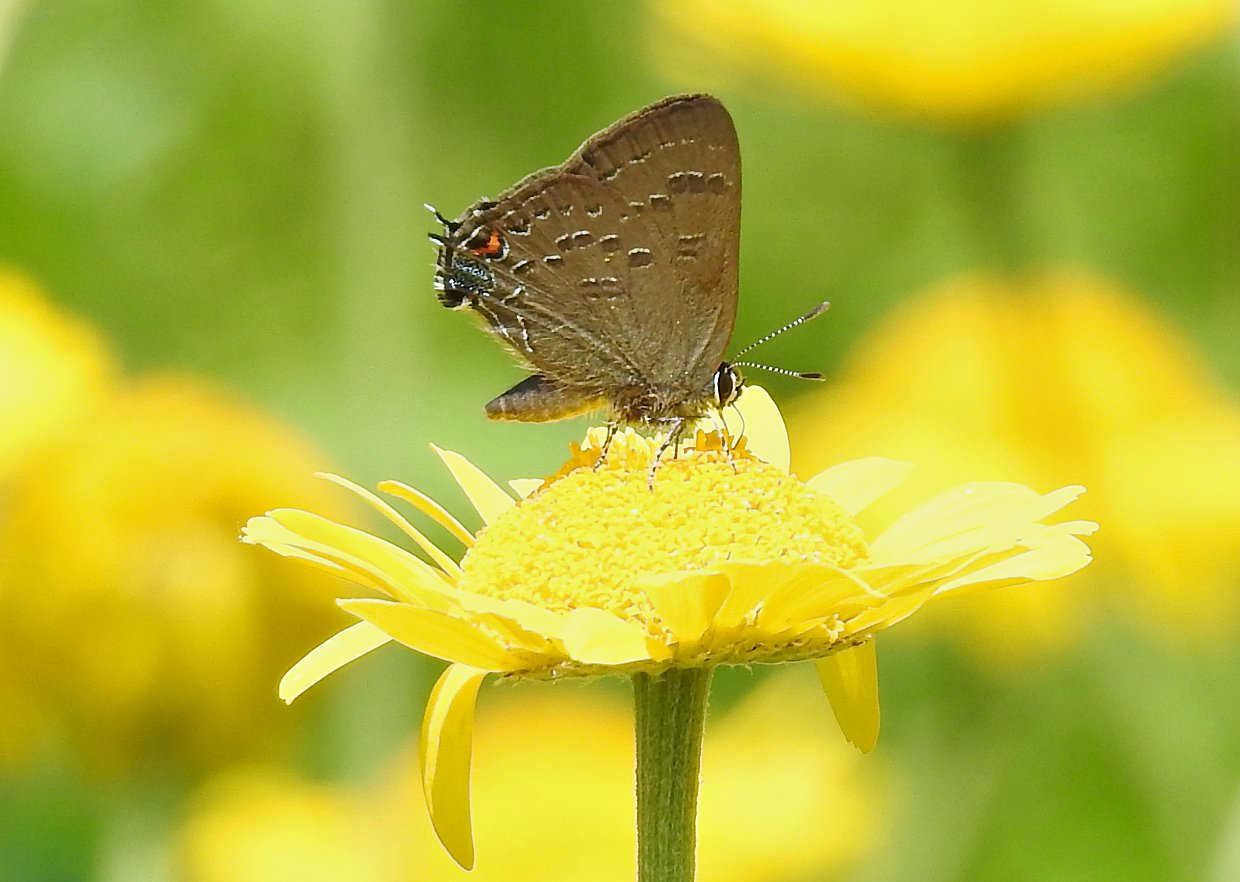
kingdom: Animalia
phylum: Arthropoda
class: Insecta
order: Lepidoptera
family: Lycaenidae
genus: Satyrium
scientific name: Satyrium calanus
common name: Banded Hairstreak
